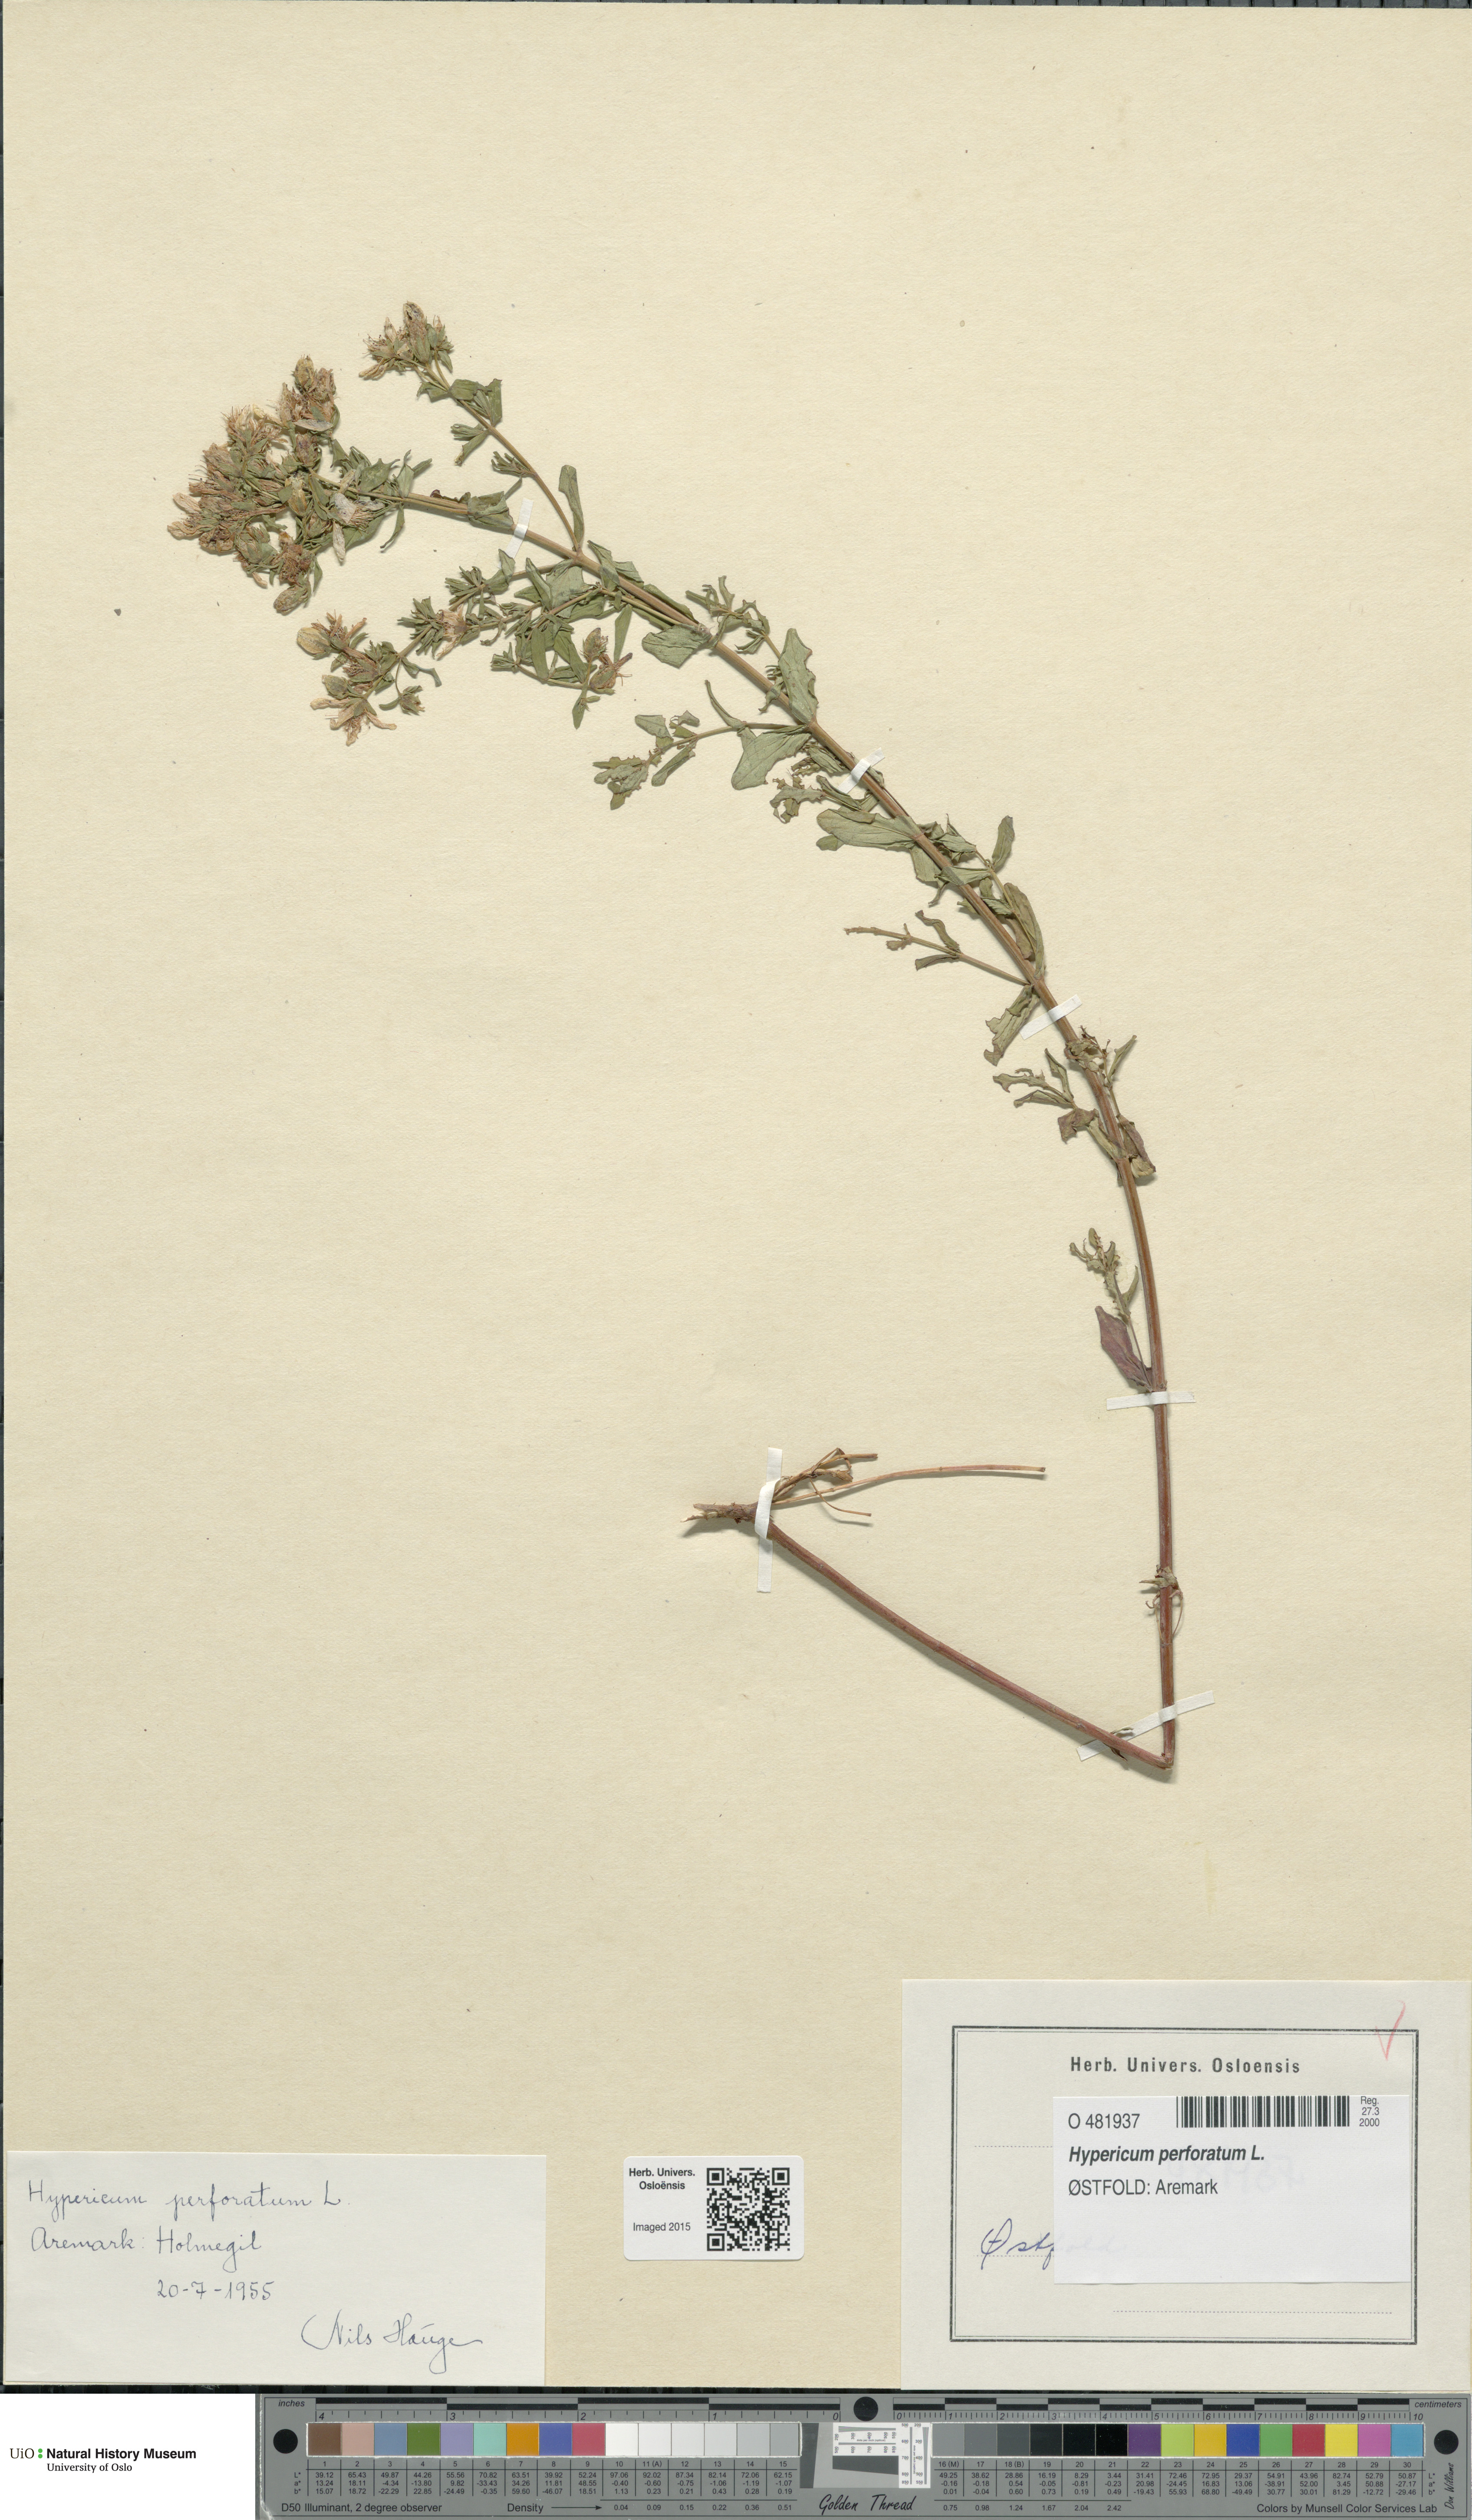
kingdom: Plantae
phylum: Tracheophyta
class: Magnoliopsida
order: Malpighiales
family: Hypericaceae
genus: Hypericum
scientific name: Hypericum perforatum
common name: Common st. johnswort
